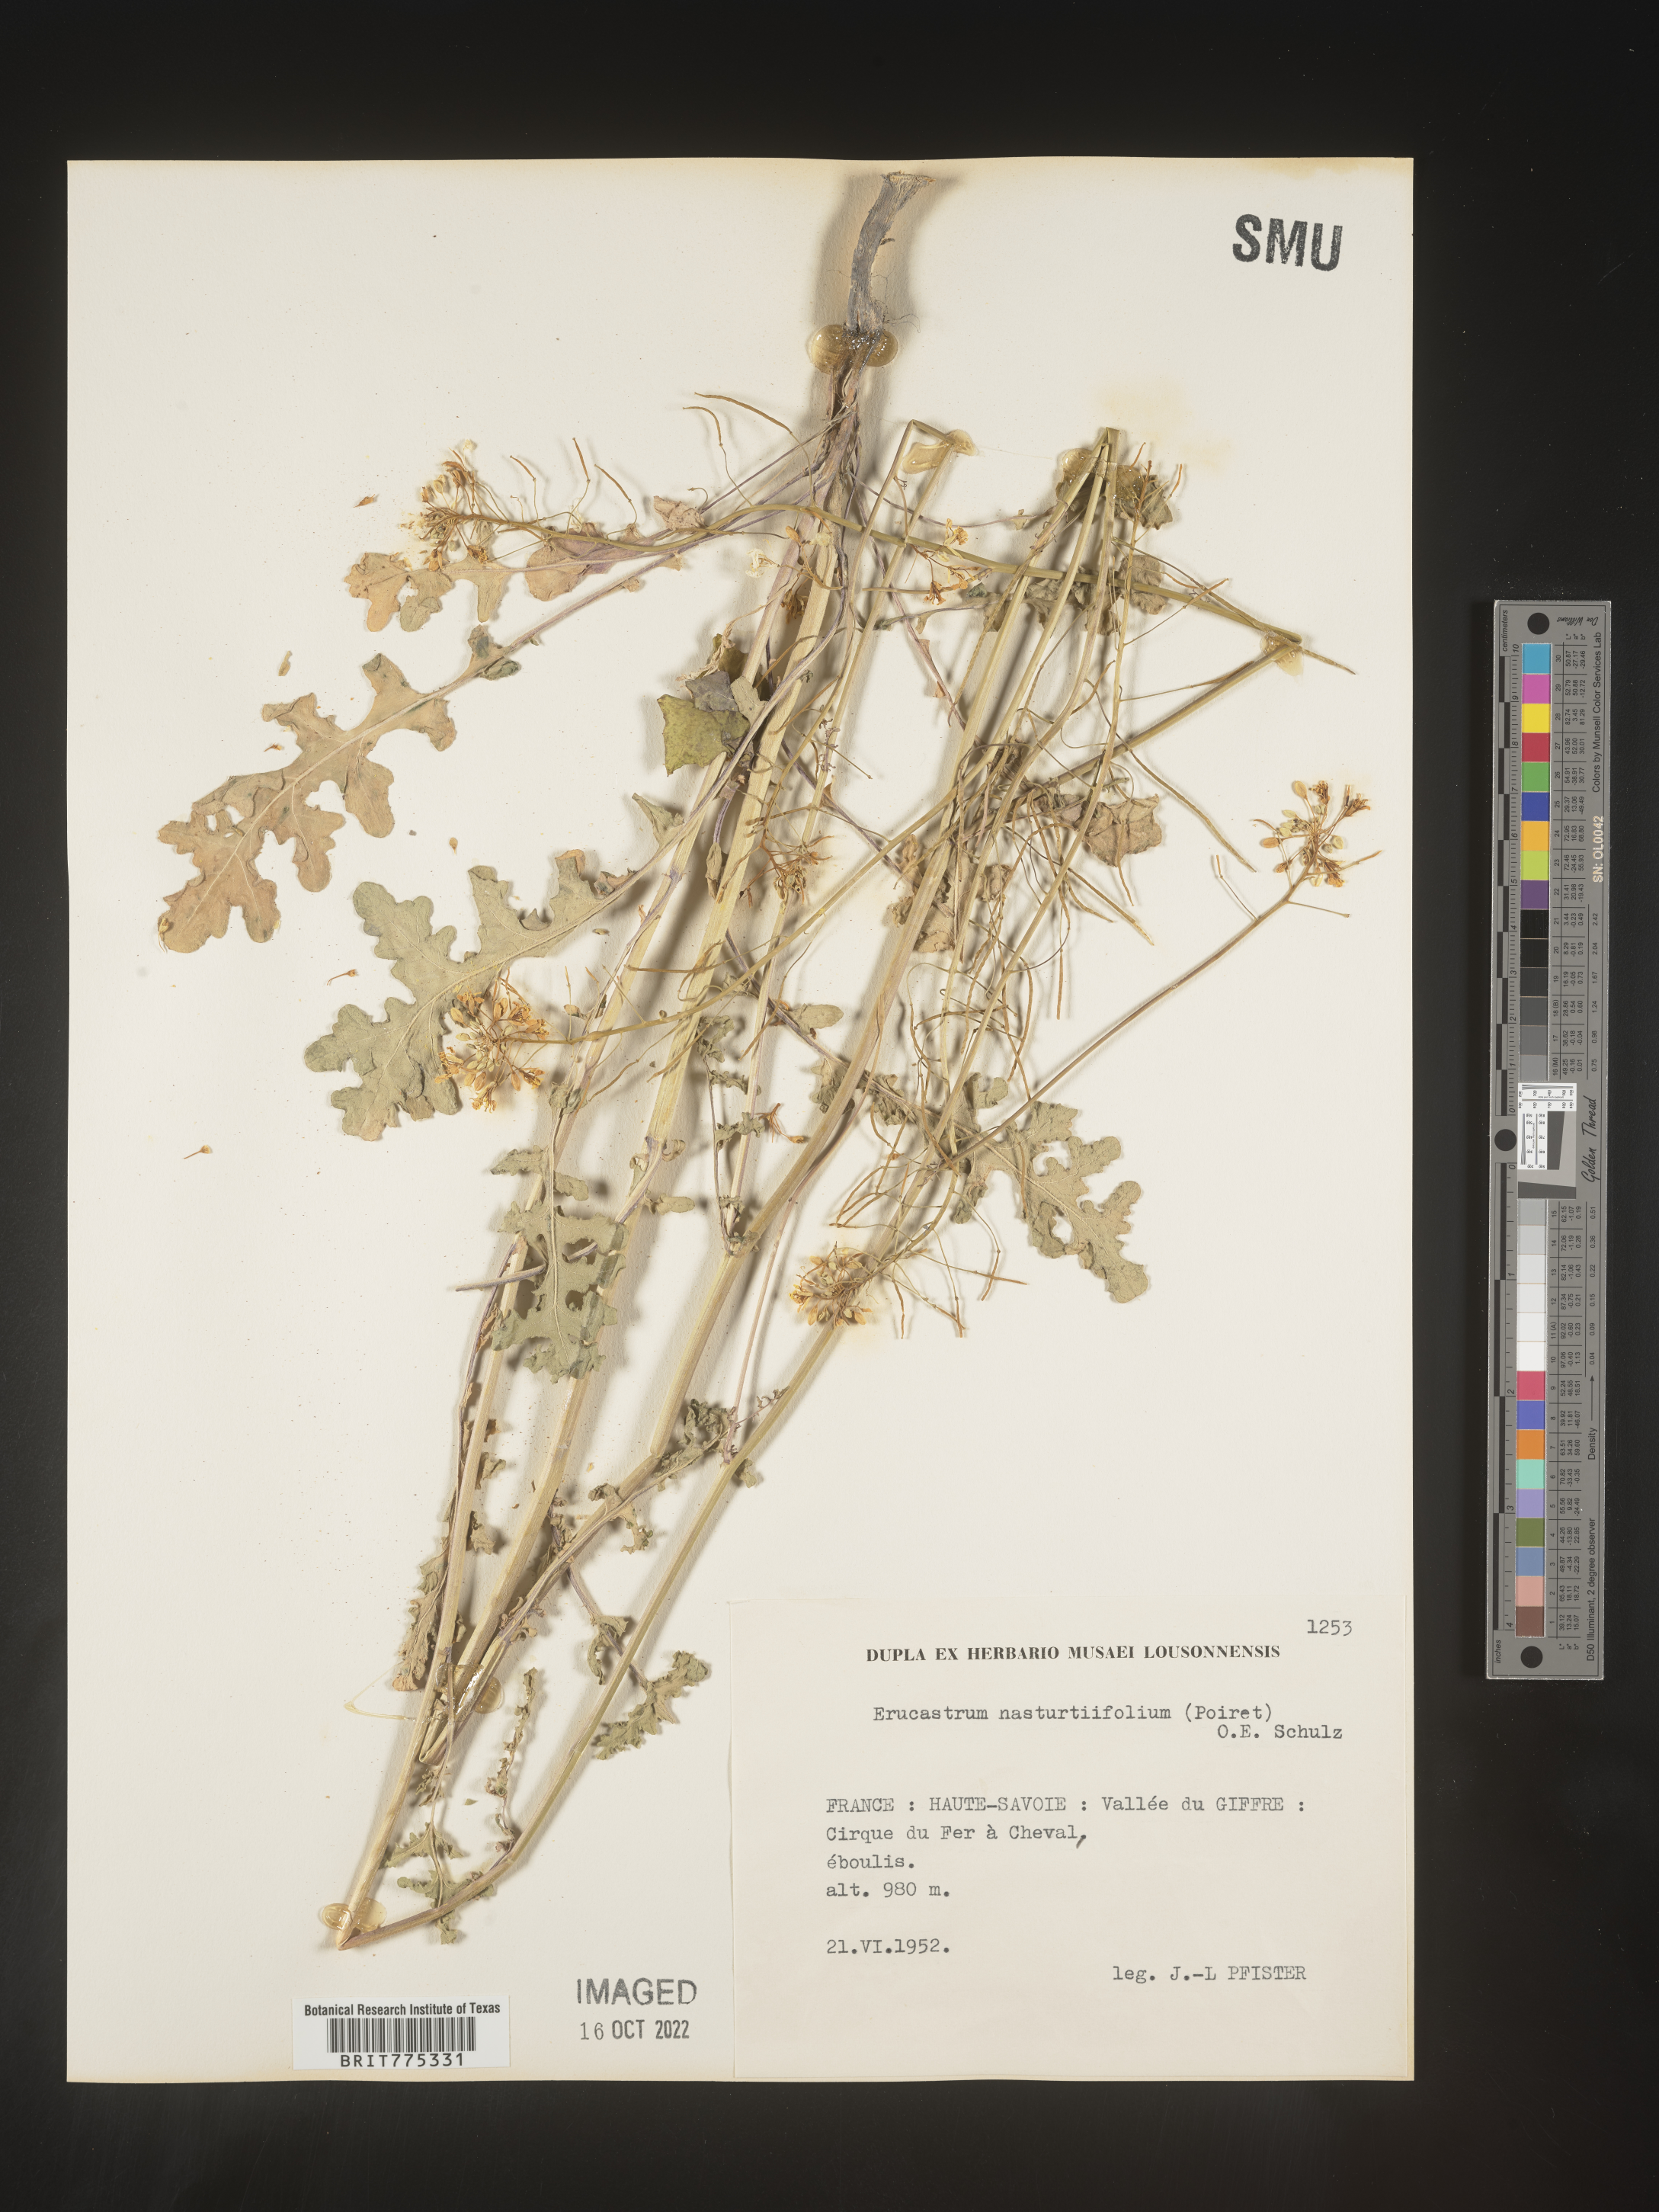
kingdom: Plantae
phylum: Tracheophyta
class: Magnoliopsida
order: Brassicales
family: Brassicaceae
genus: Erucastrum
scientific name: Erucastrum
